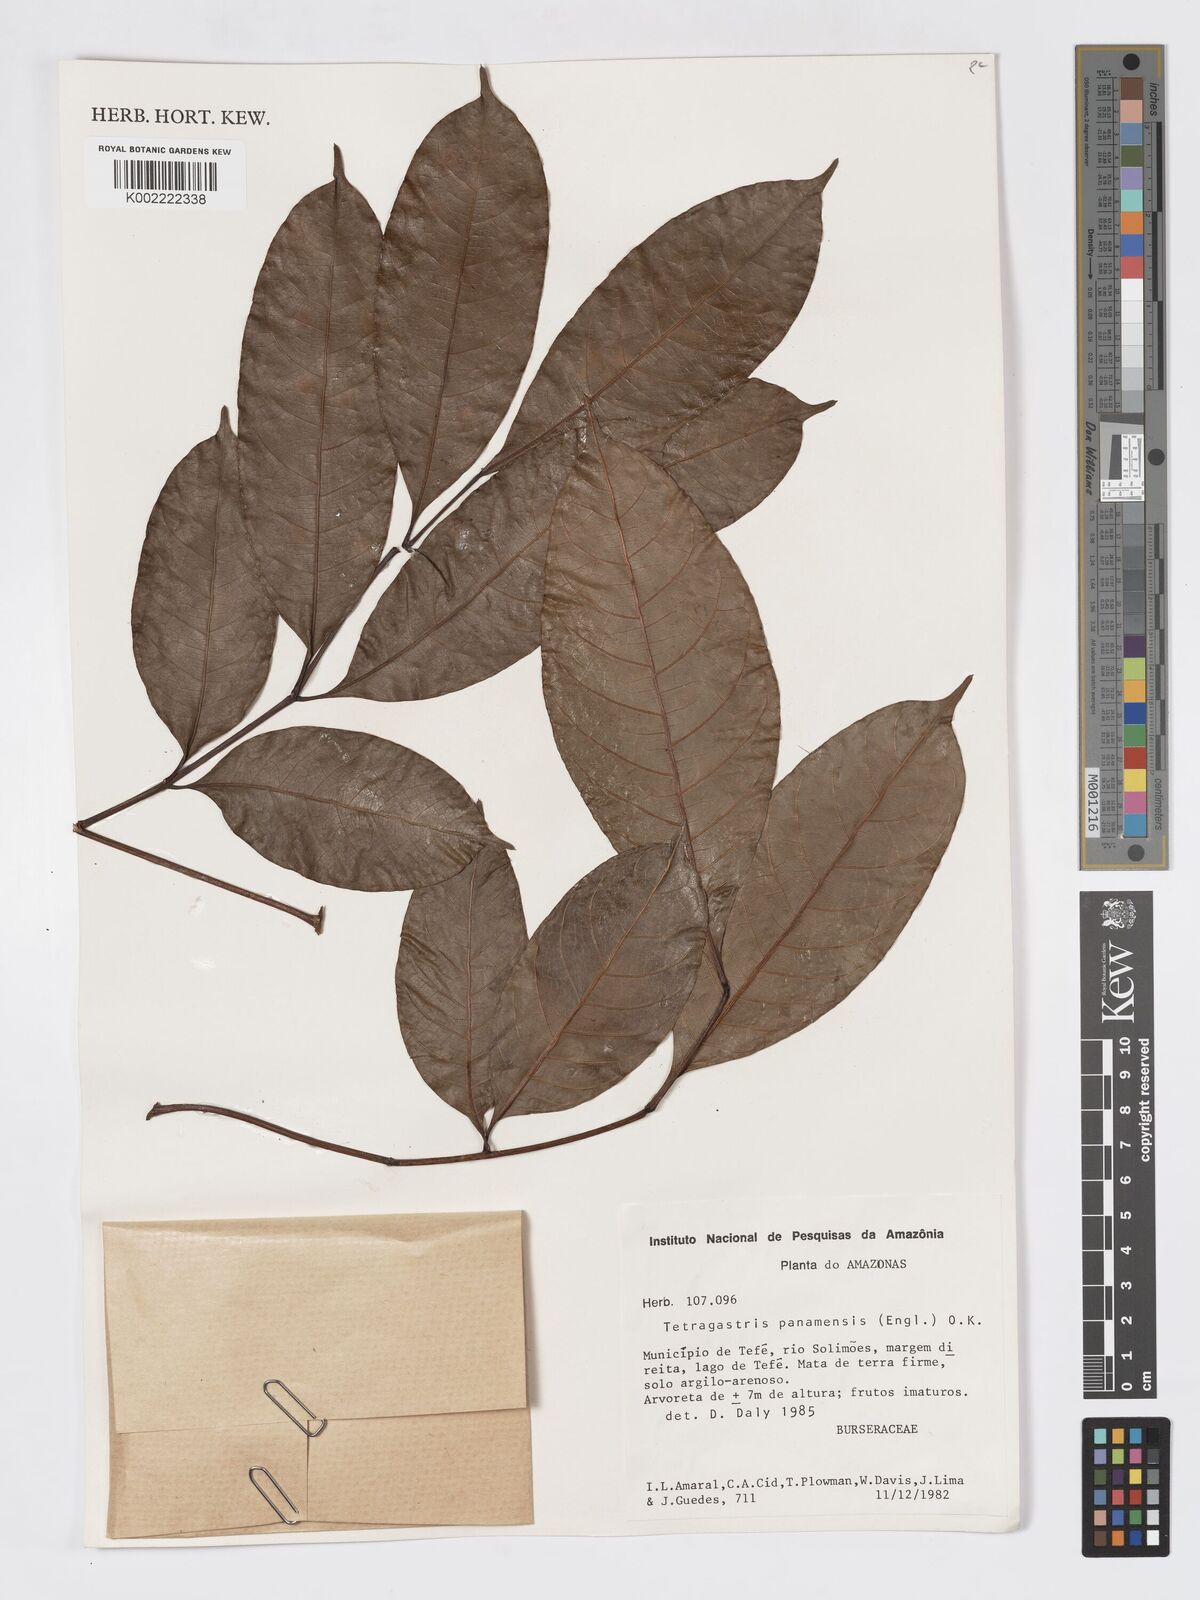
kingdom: Plantae
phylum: Tracheophyta
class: Magnoliopsida
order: Sapindales
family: Burseraceae
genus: Tetragastris
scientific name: Tetragastris panamensis
